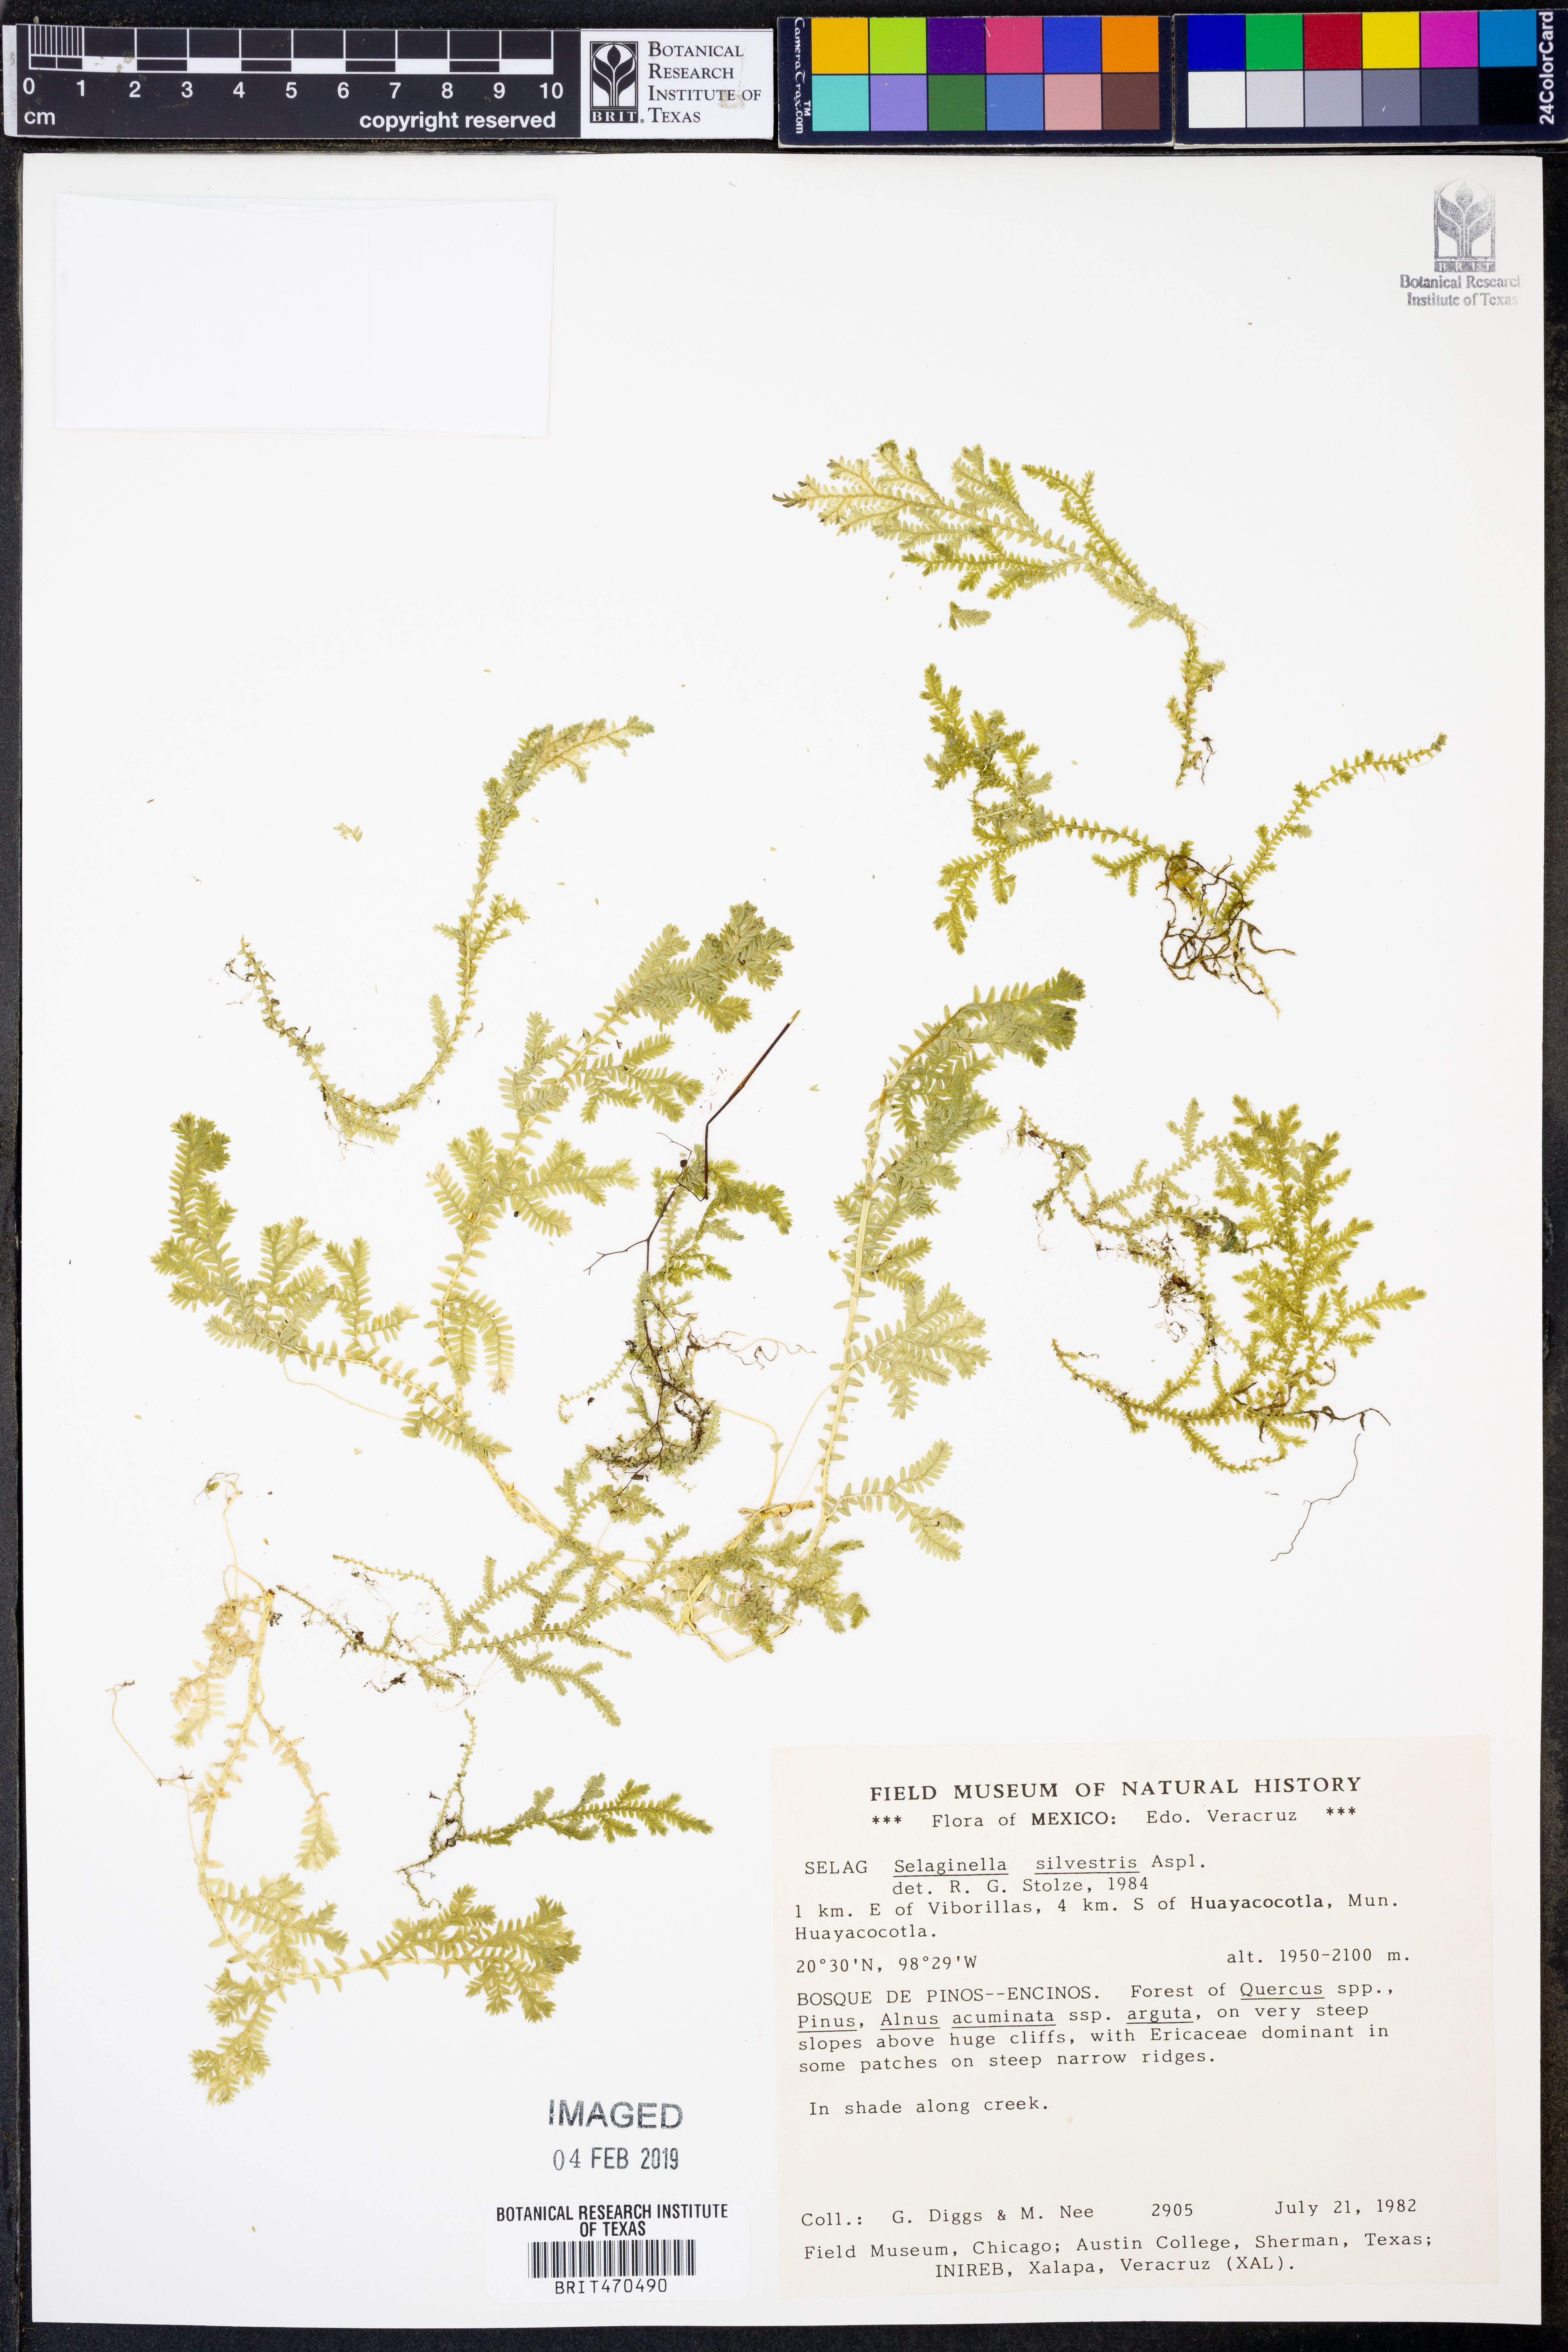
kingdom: Plantae
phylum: Tracheophyta
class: Lycopodiopsida
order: Selaginellales
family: Selaginellaceae
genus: Selaginella
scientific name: Selaginella silvestris
